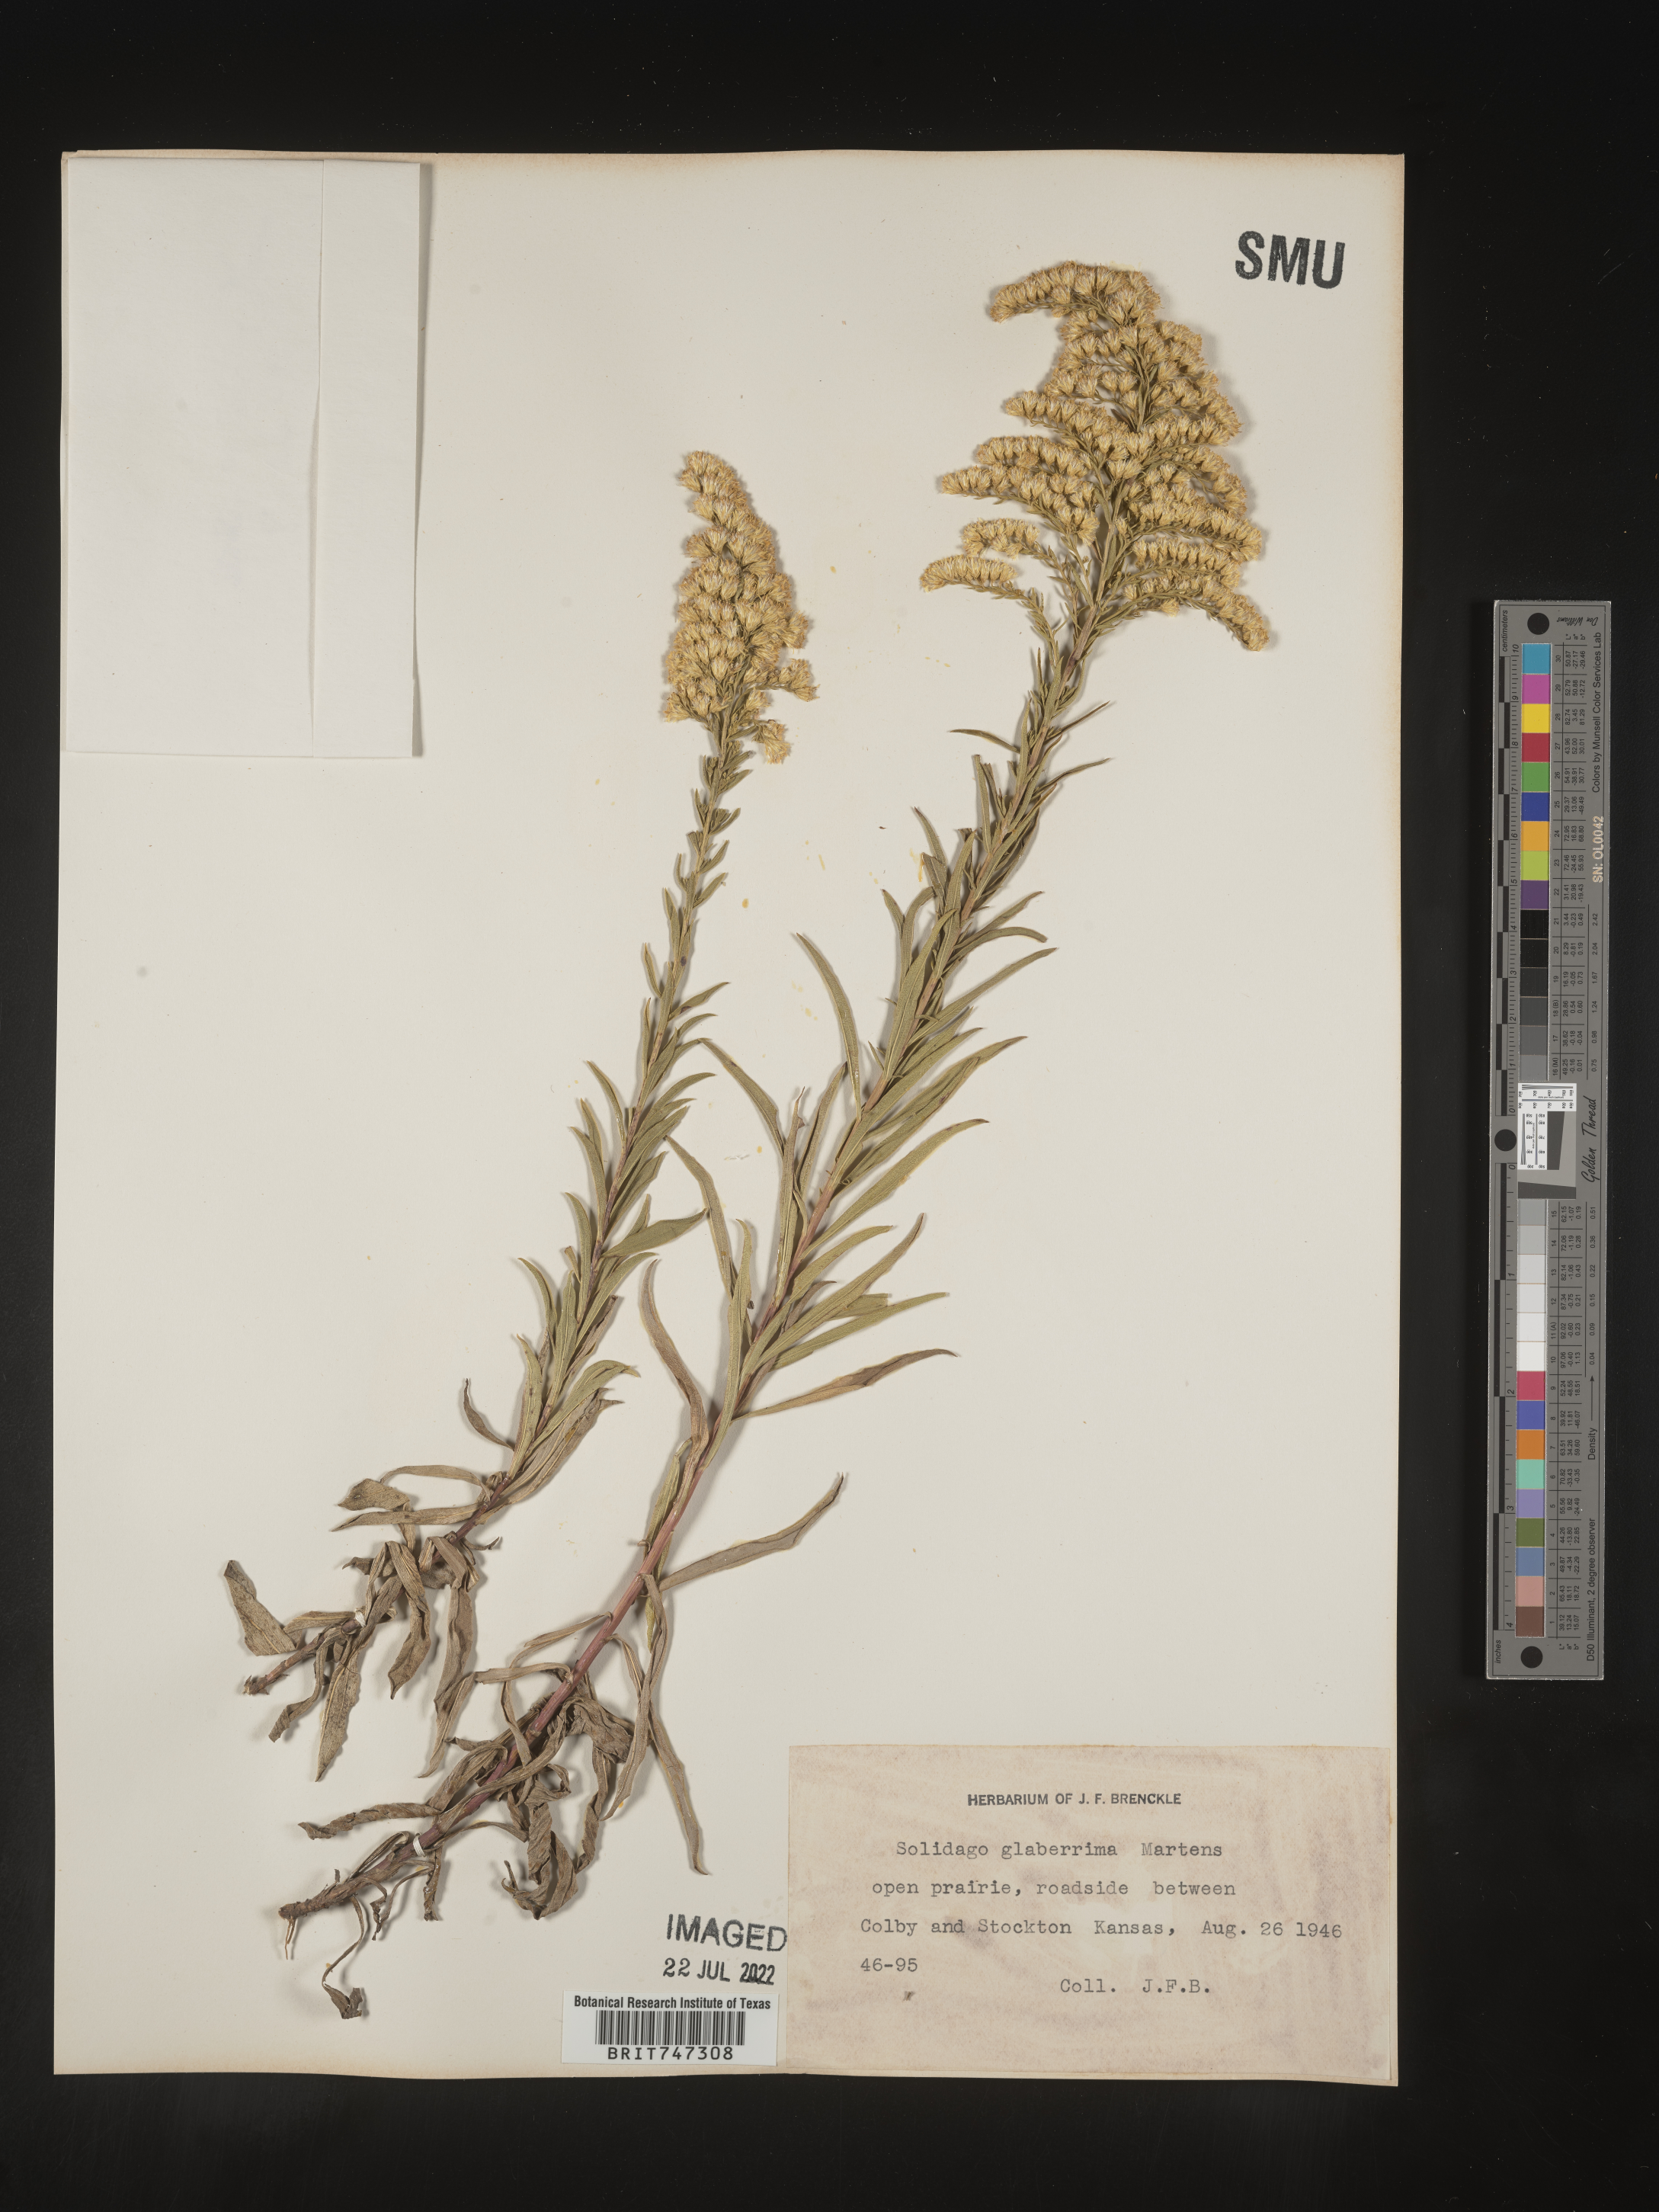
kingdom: Plantae
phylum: Tracheophyta
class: Magnoliopsida
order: Asterales
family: Asteraceae
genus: Solidago
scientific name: Solidago missouriensis
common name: Prairie goldenrod
